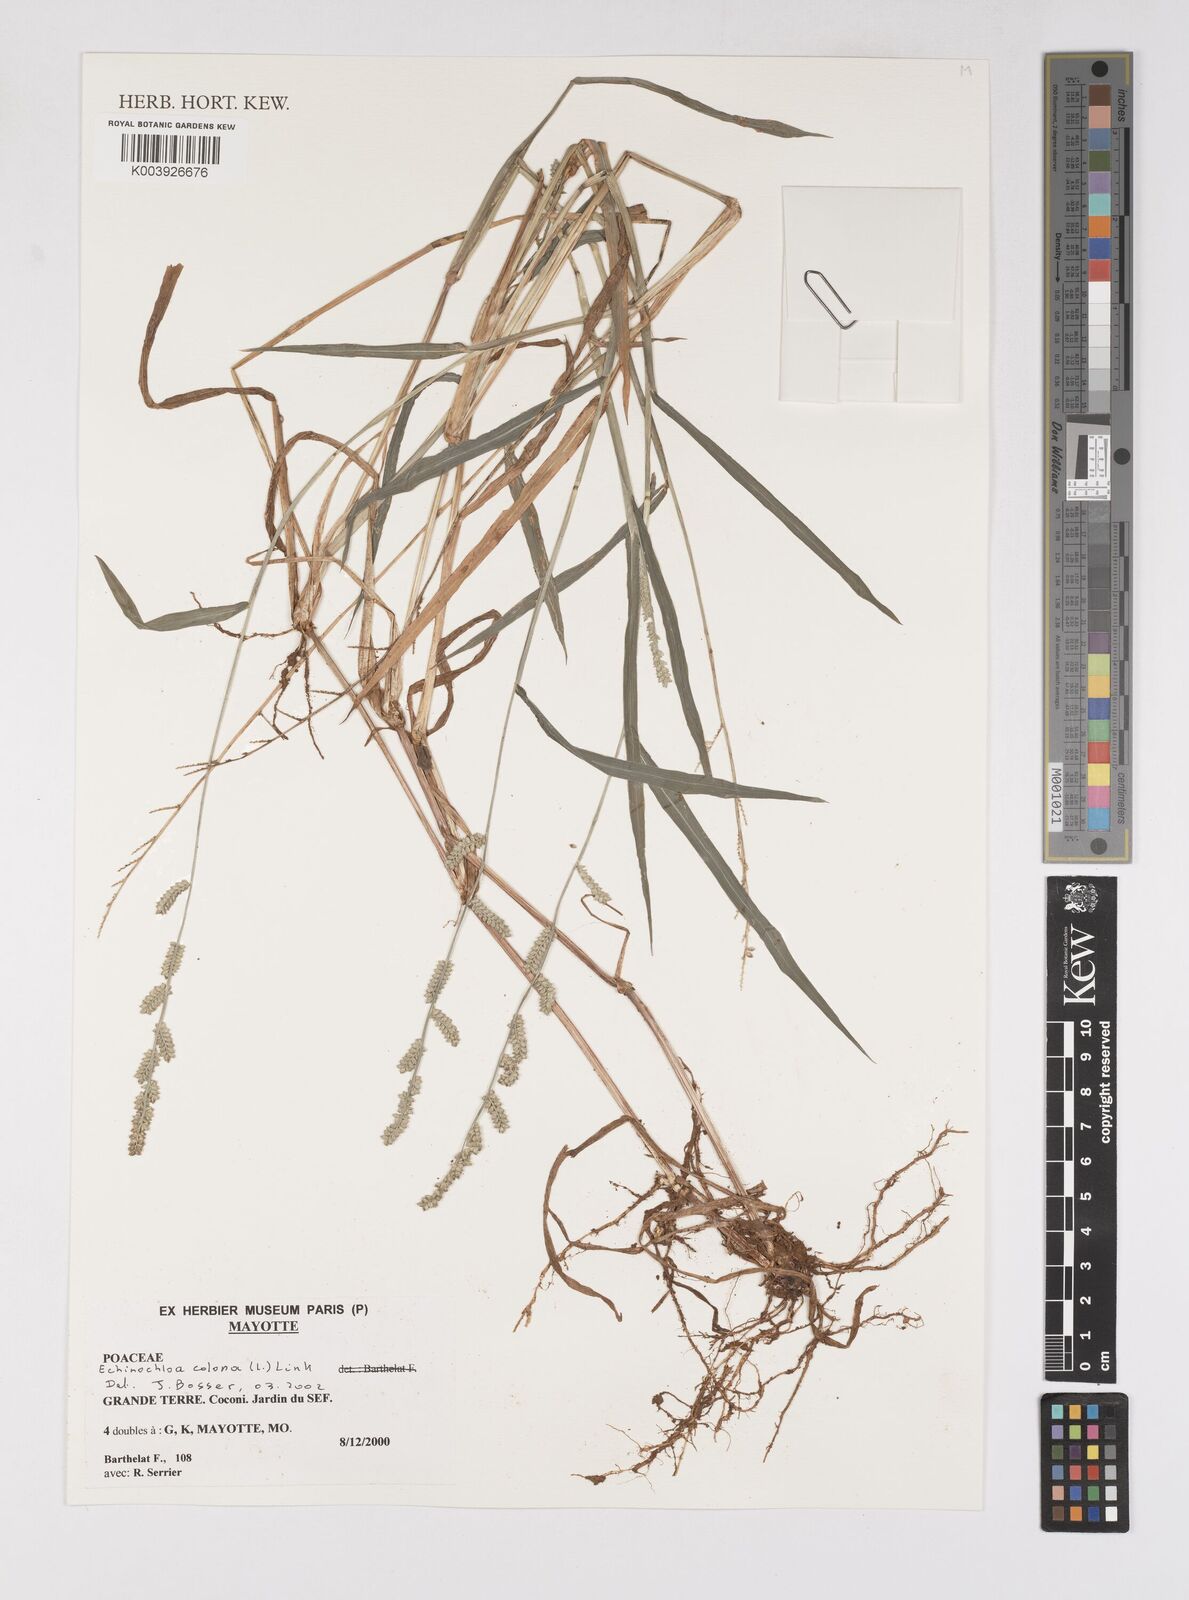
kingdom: Plantae
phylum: Tracheophyta
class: Liliopsida
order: Poales
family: Poaceae
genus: Echinochloa
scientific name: Echinochloa colonum
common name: Jungle rice
